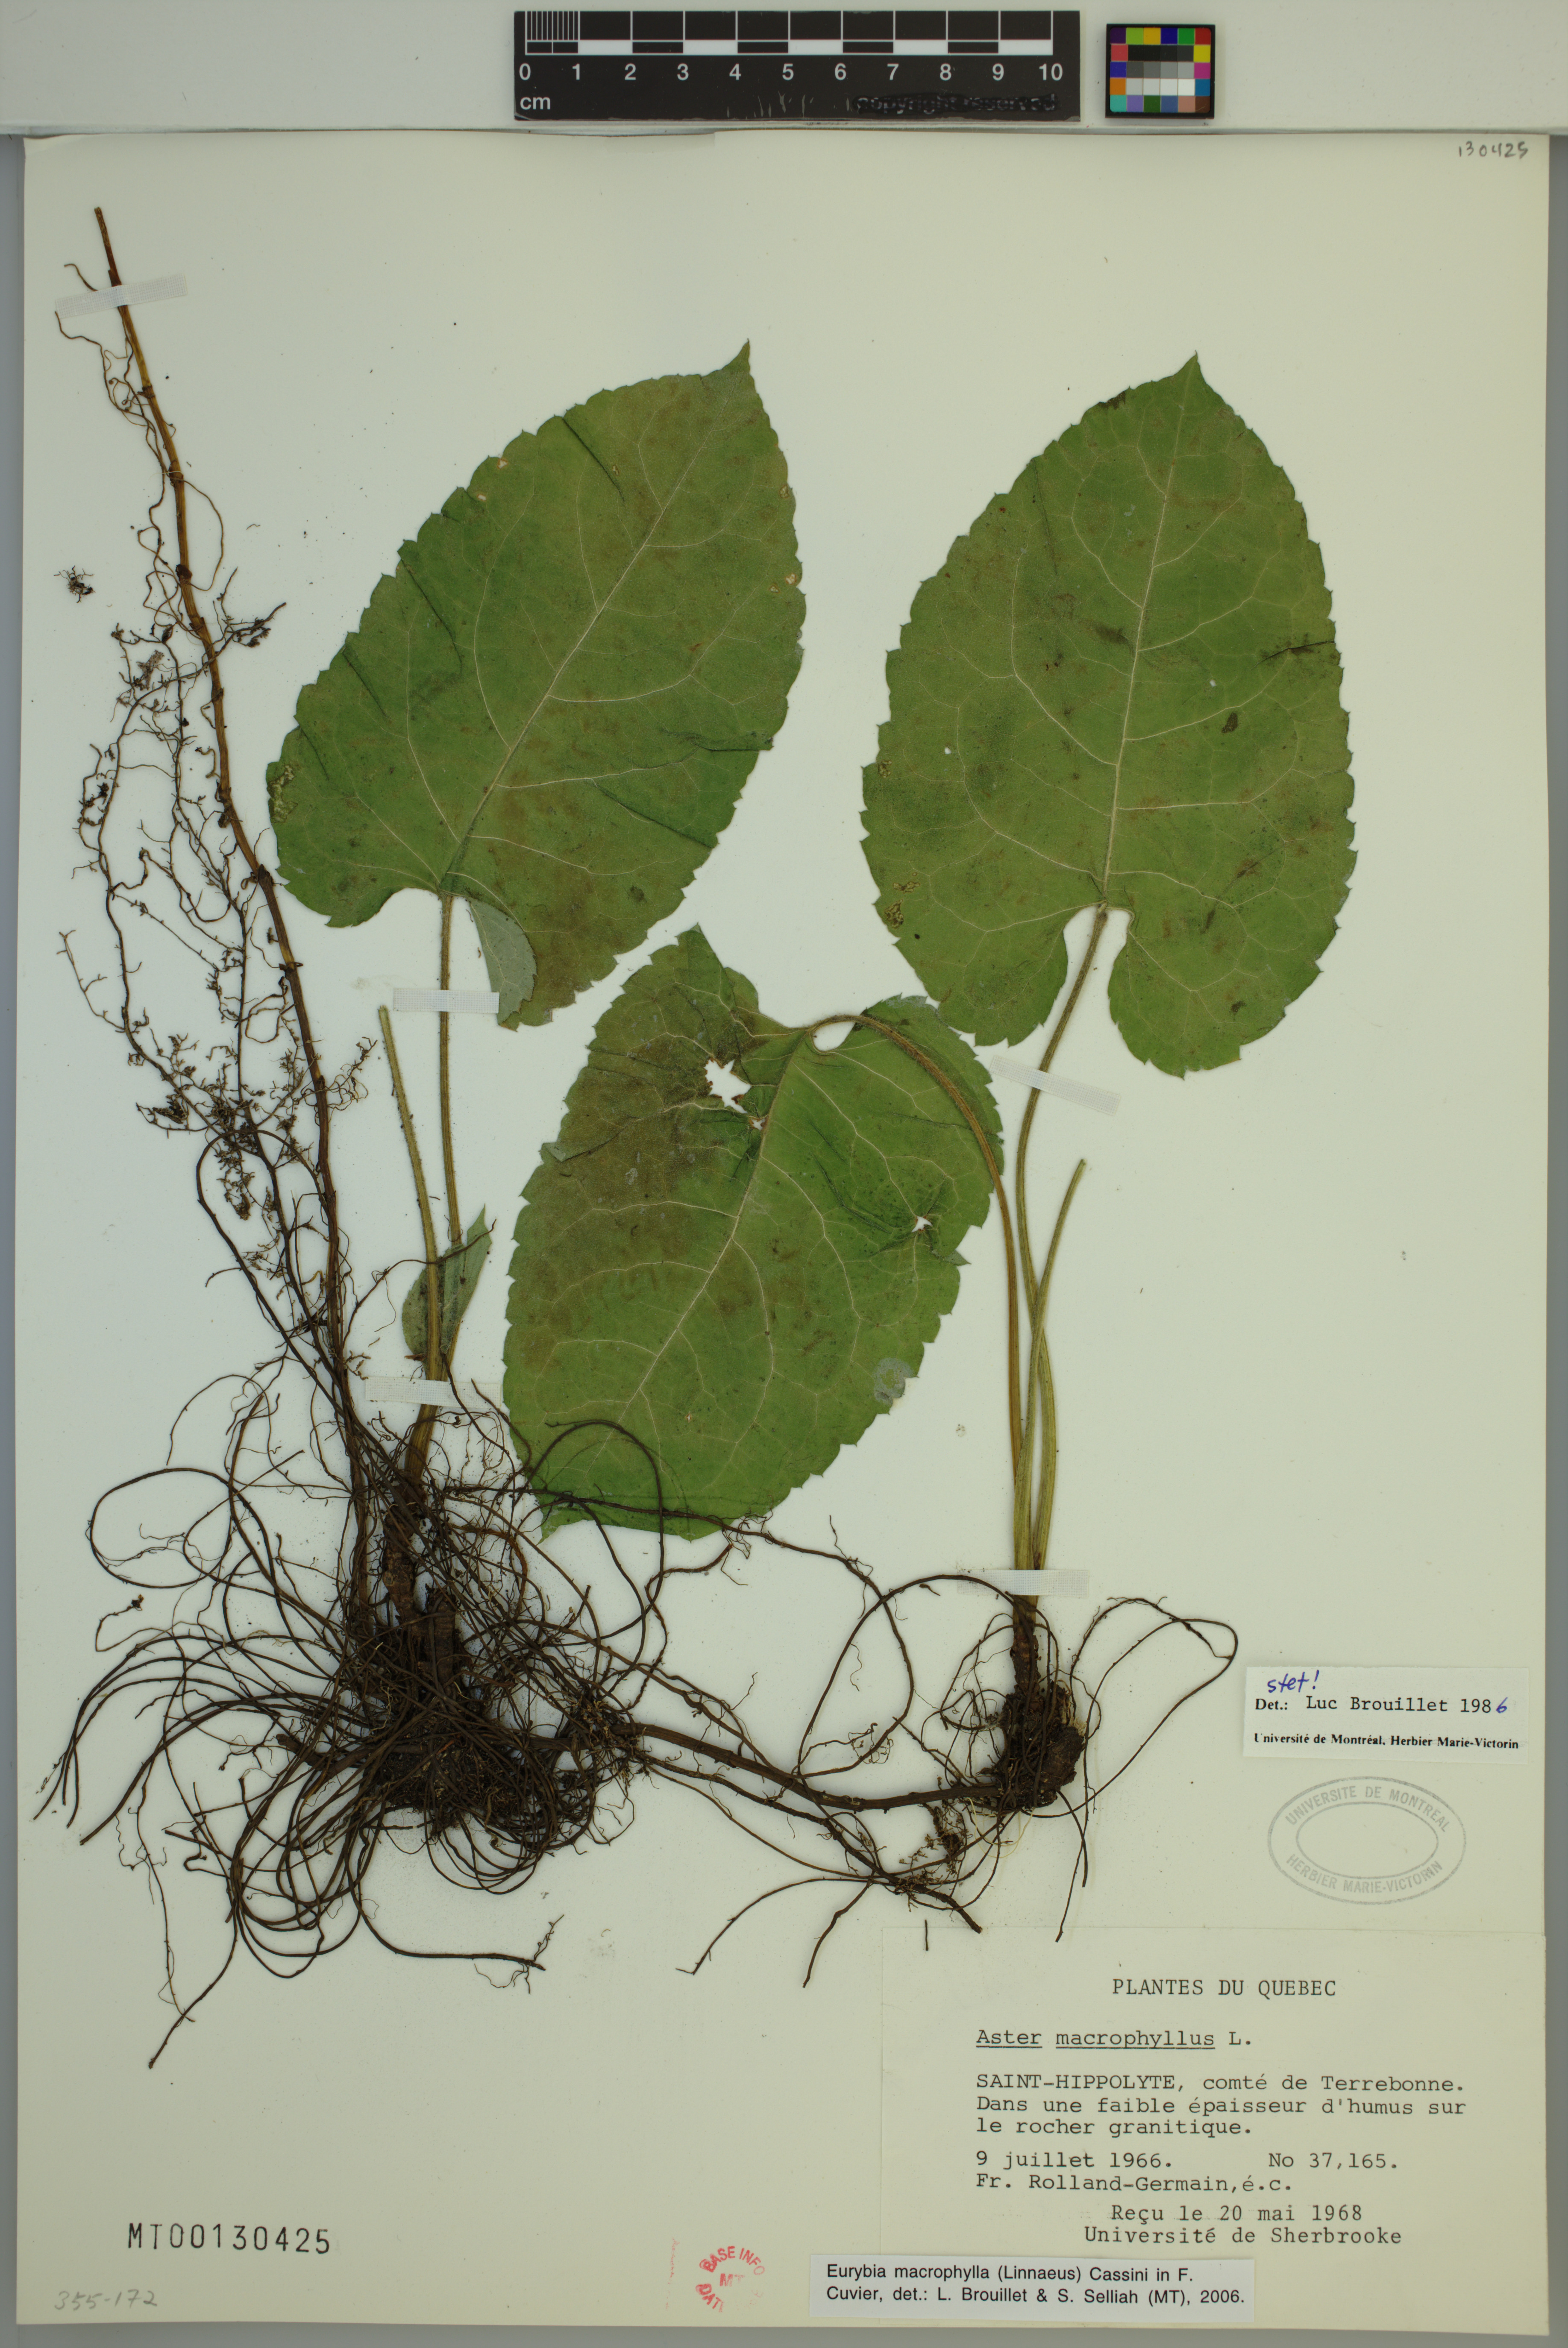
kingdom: Plantae
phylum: Tracheophyta
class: Magnoliopsida
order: Asterales
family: Asteraceae
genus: Eurybia
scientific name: Eurybia macrophylla
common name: Big-leaved aster
